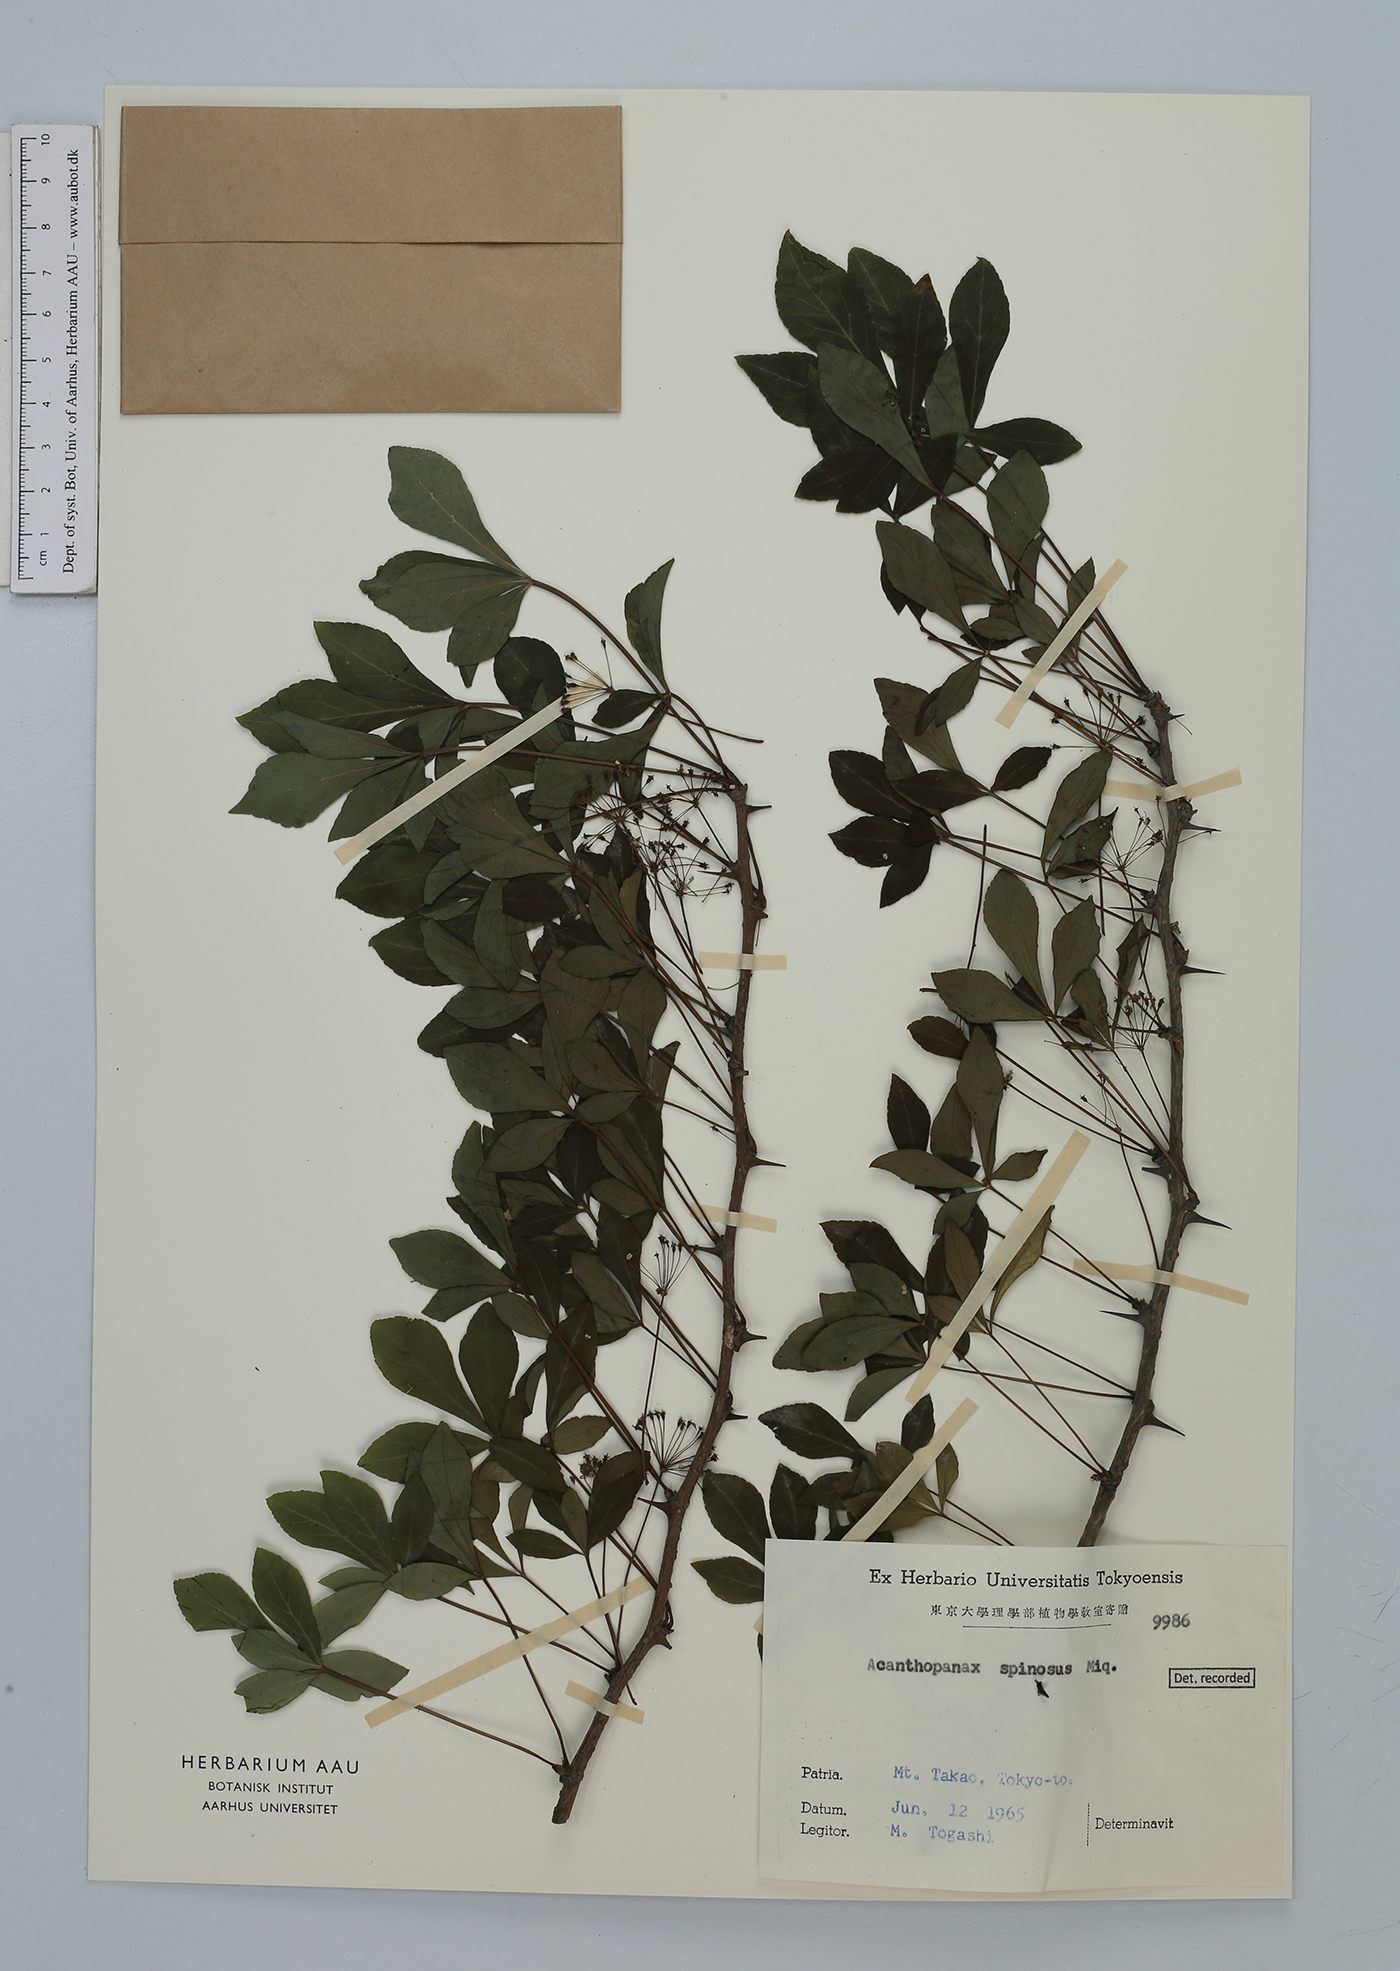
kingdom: Plantae
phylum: Tracheophyta
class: Magnoliopsida
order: Apiales
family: Araliaceae
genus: Eleutherococcus
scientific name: Eleutherococcus spinosus
